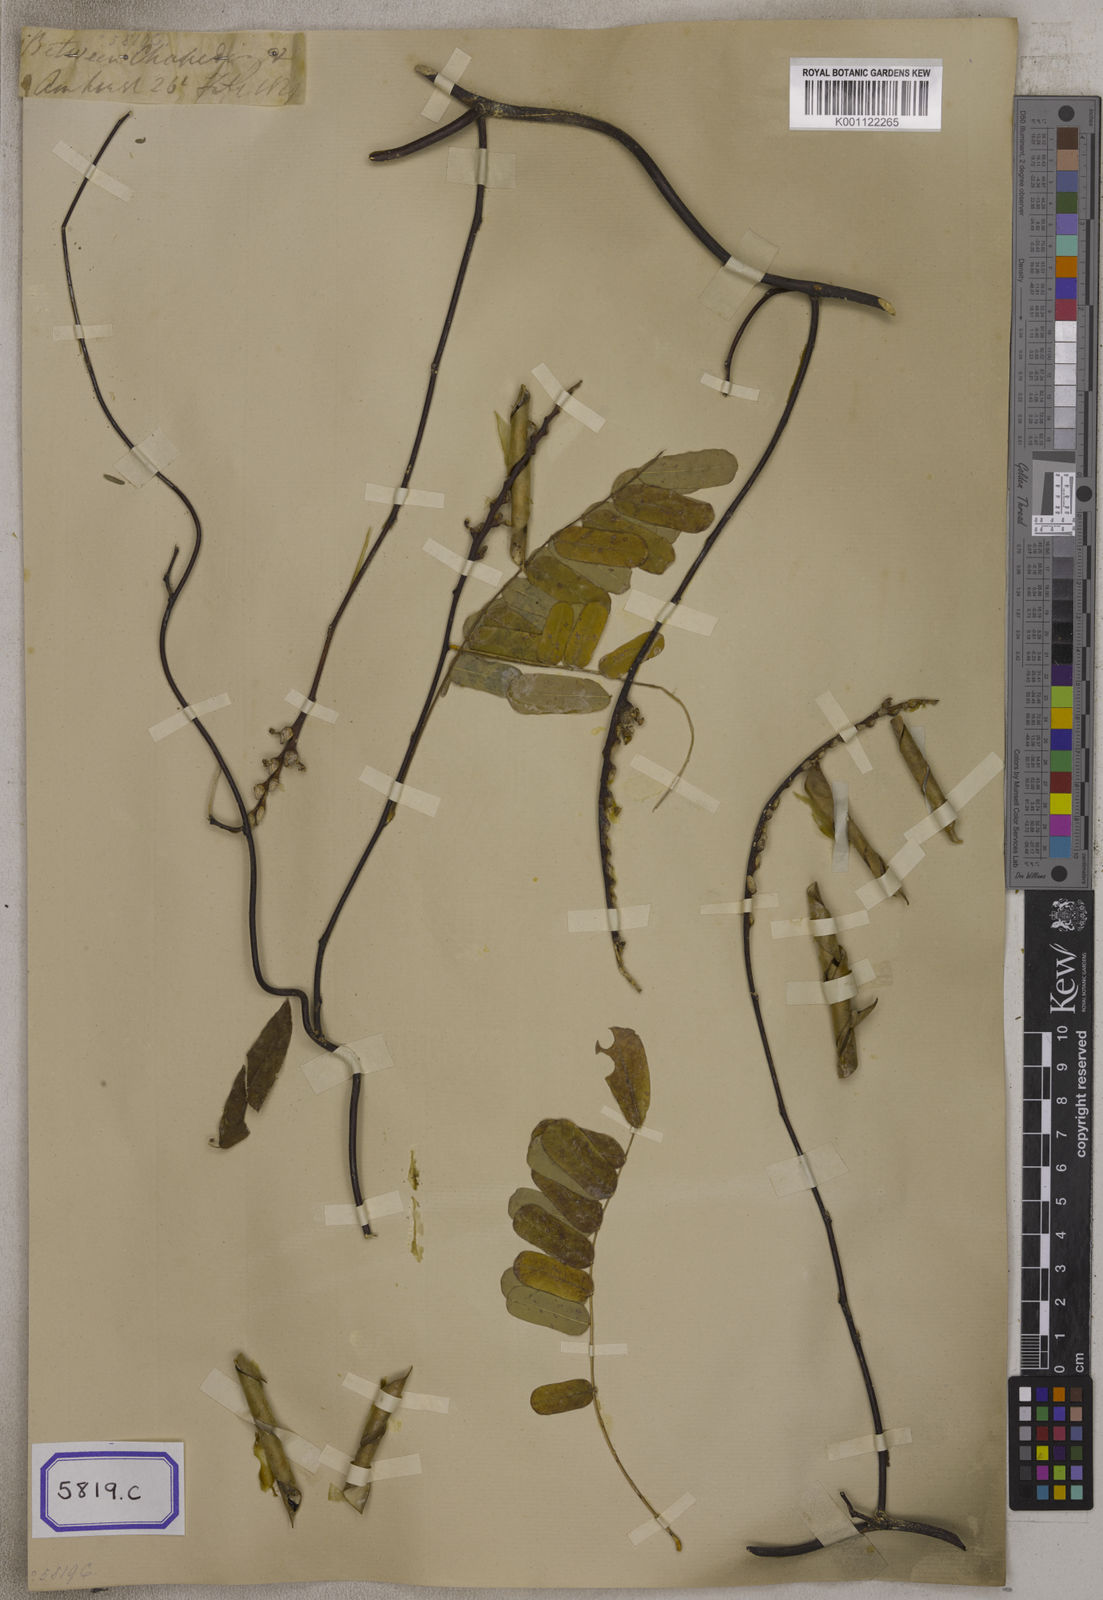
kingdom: Plantae
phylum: Tracheophyta
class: Magnoliopsida
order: Fabales
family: Fabaceae
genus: Abrus
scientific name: Abrus
